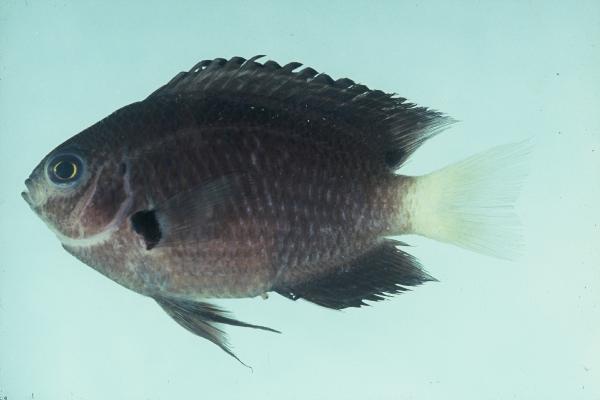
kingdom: Animalia
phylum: Chordata
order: Perciformes
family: Pomacentridae
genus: Pomacentrus
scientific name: Pomacentrus nagasakiensis
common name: Nagasaki damsel
